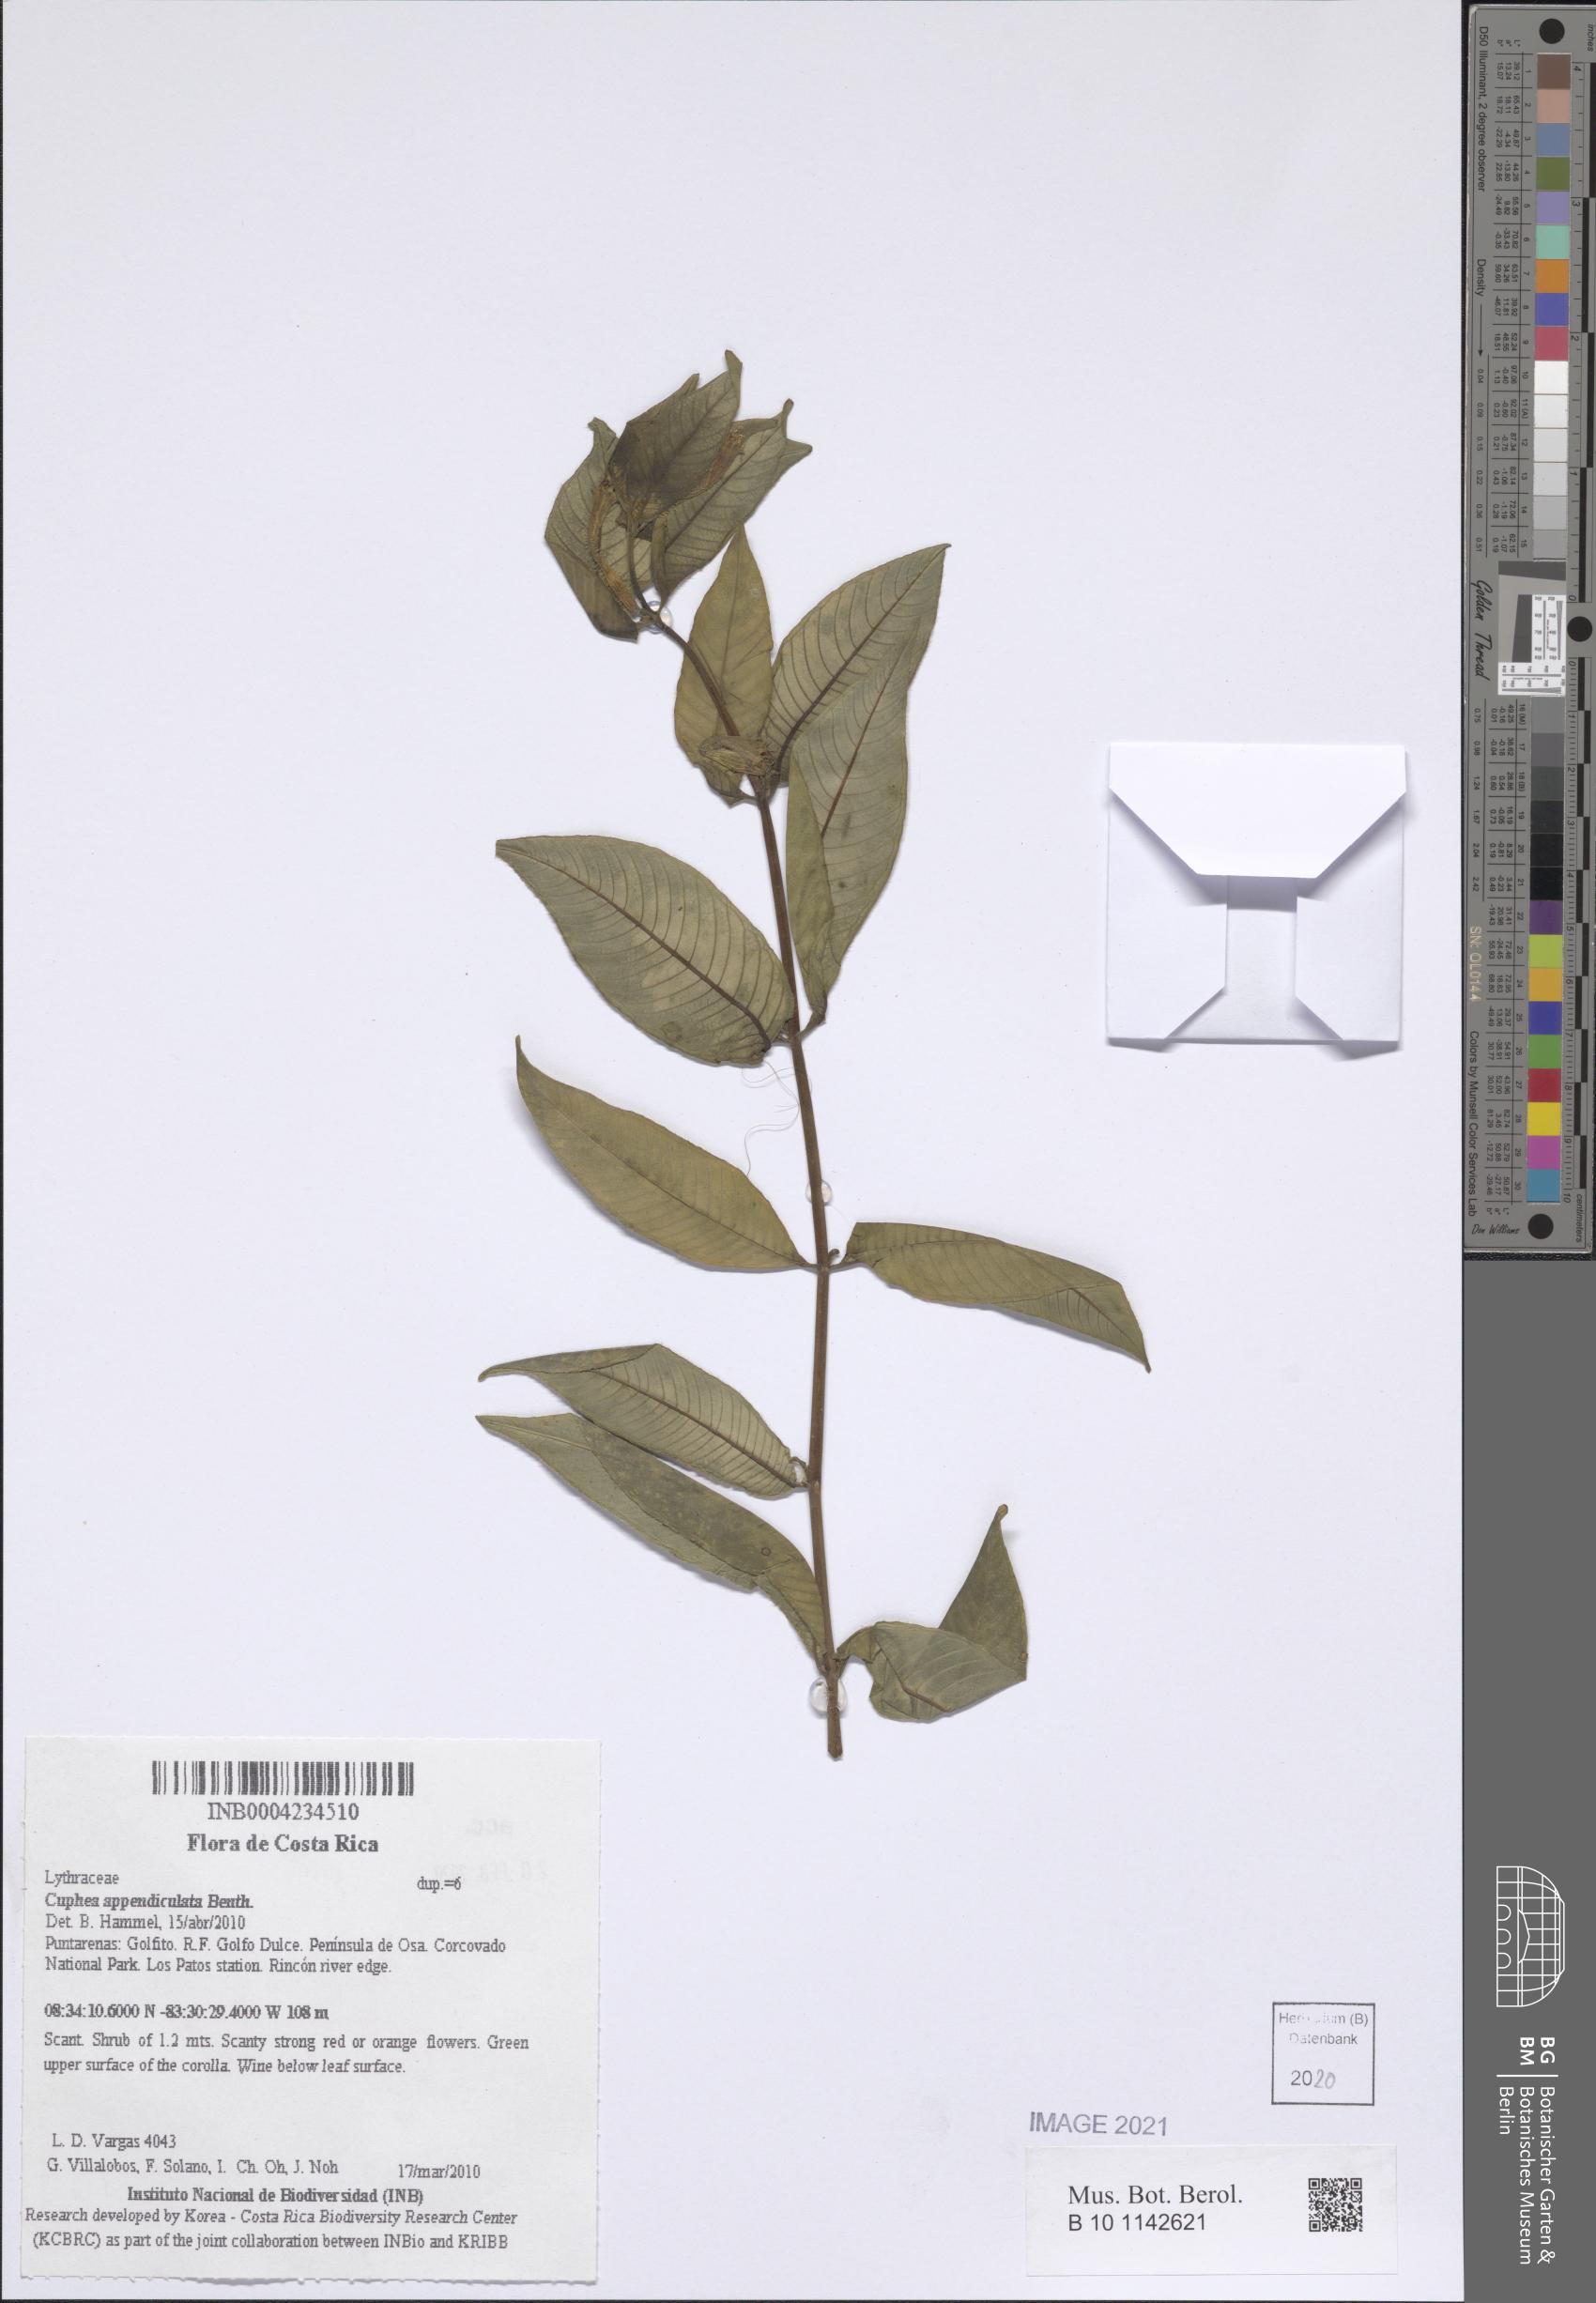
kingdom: Plantae
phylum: Tracheophyta
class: Magnoliopsida
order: Myrtales
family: Lythraceae
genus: Cuphea
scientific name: Cuphea appendiculata
